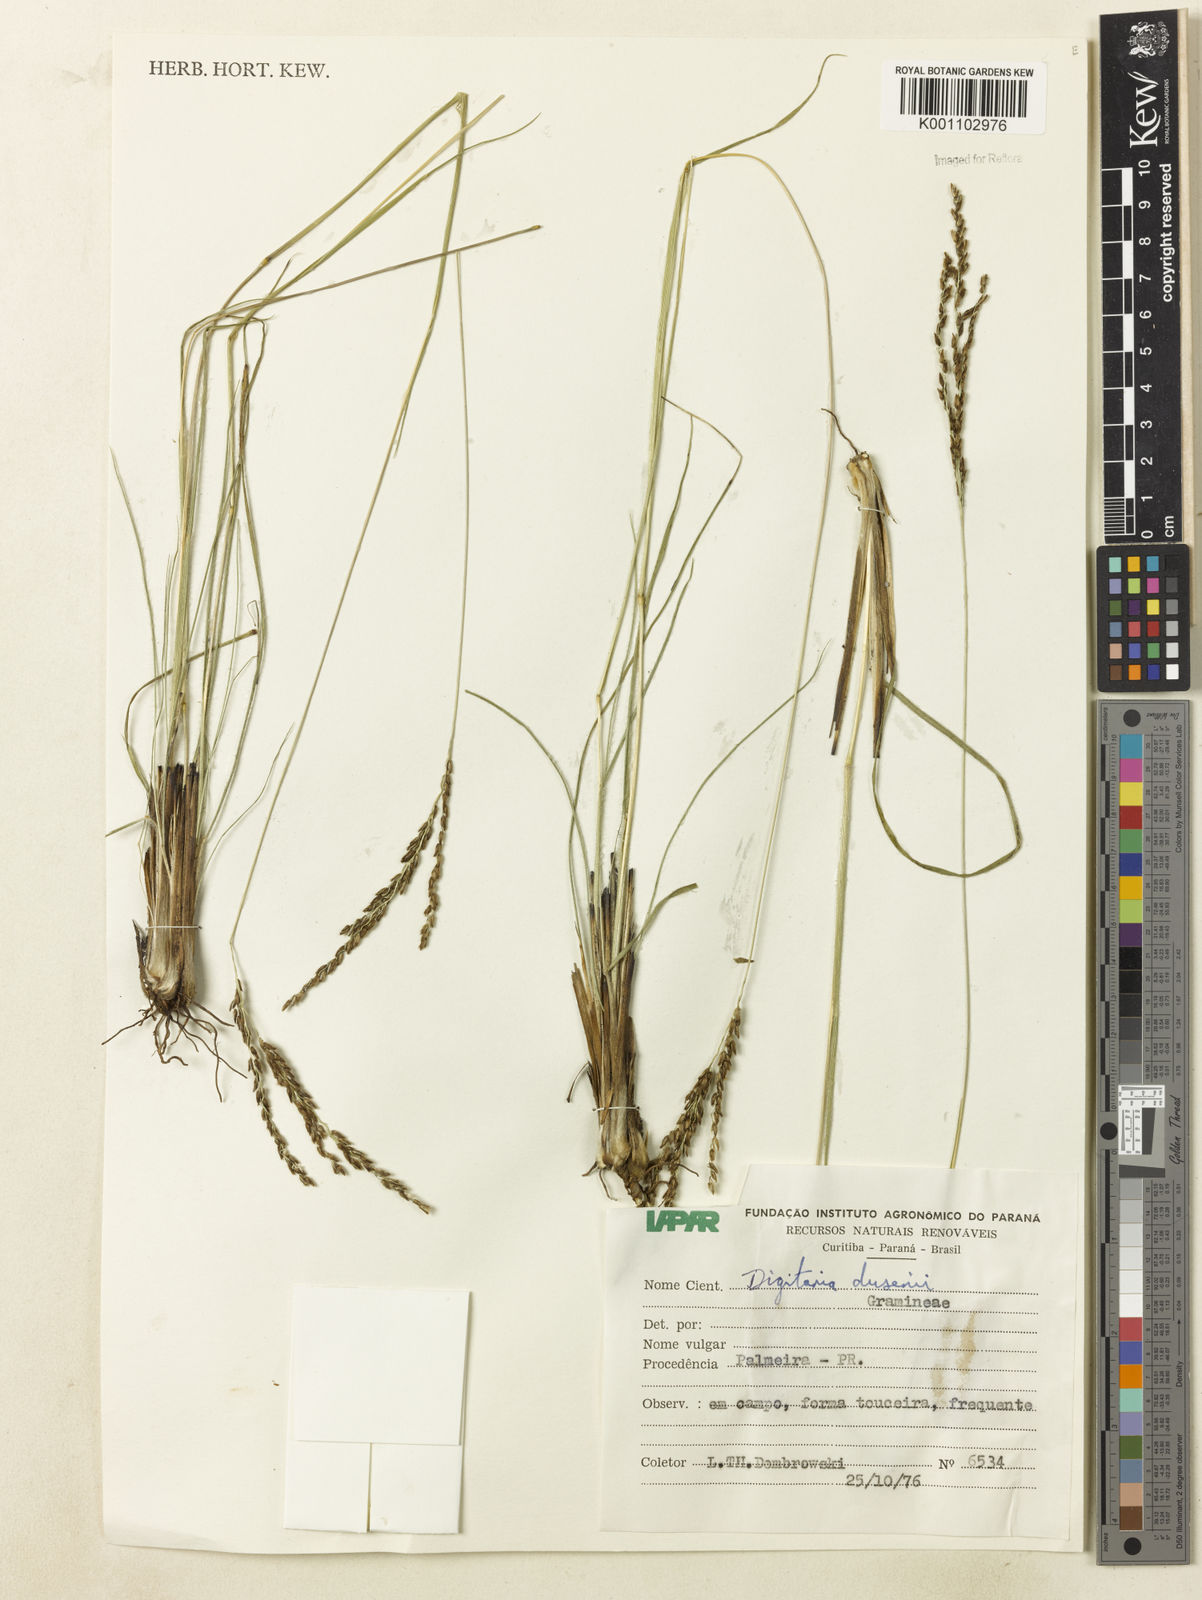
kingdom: Plantae
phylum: Tracheophyta
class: Liliopsida
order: Poales
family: Poaceae
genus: Digitaria
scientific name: Digitaria purpurea
